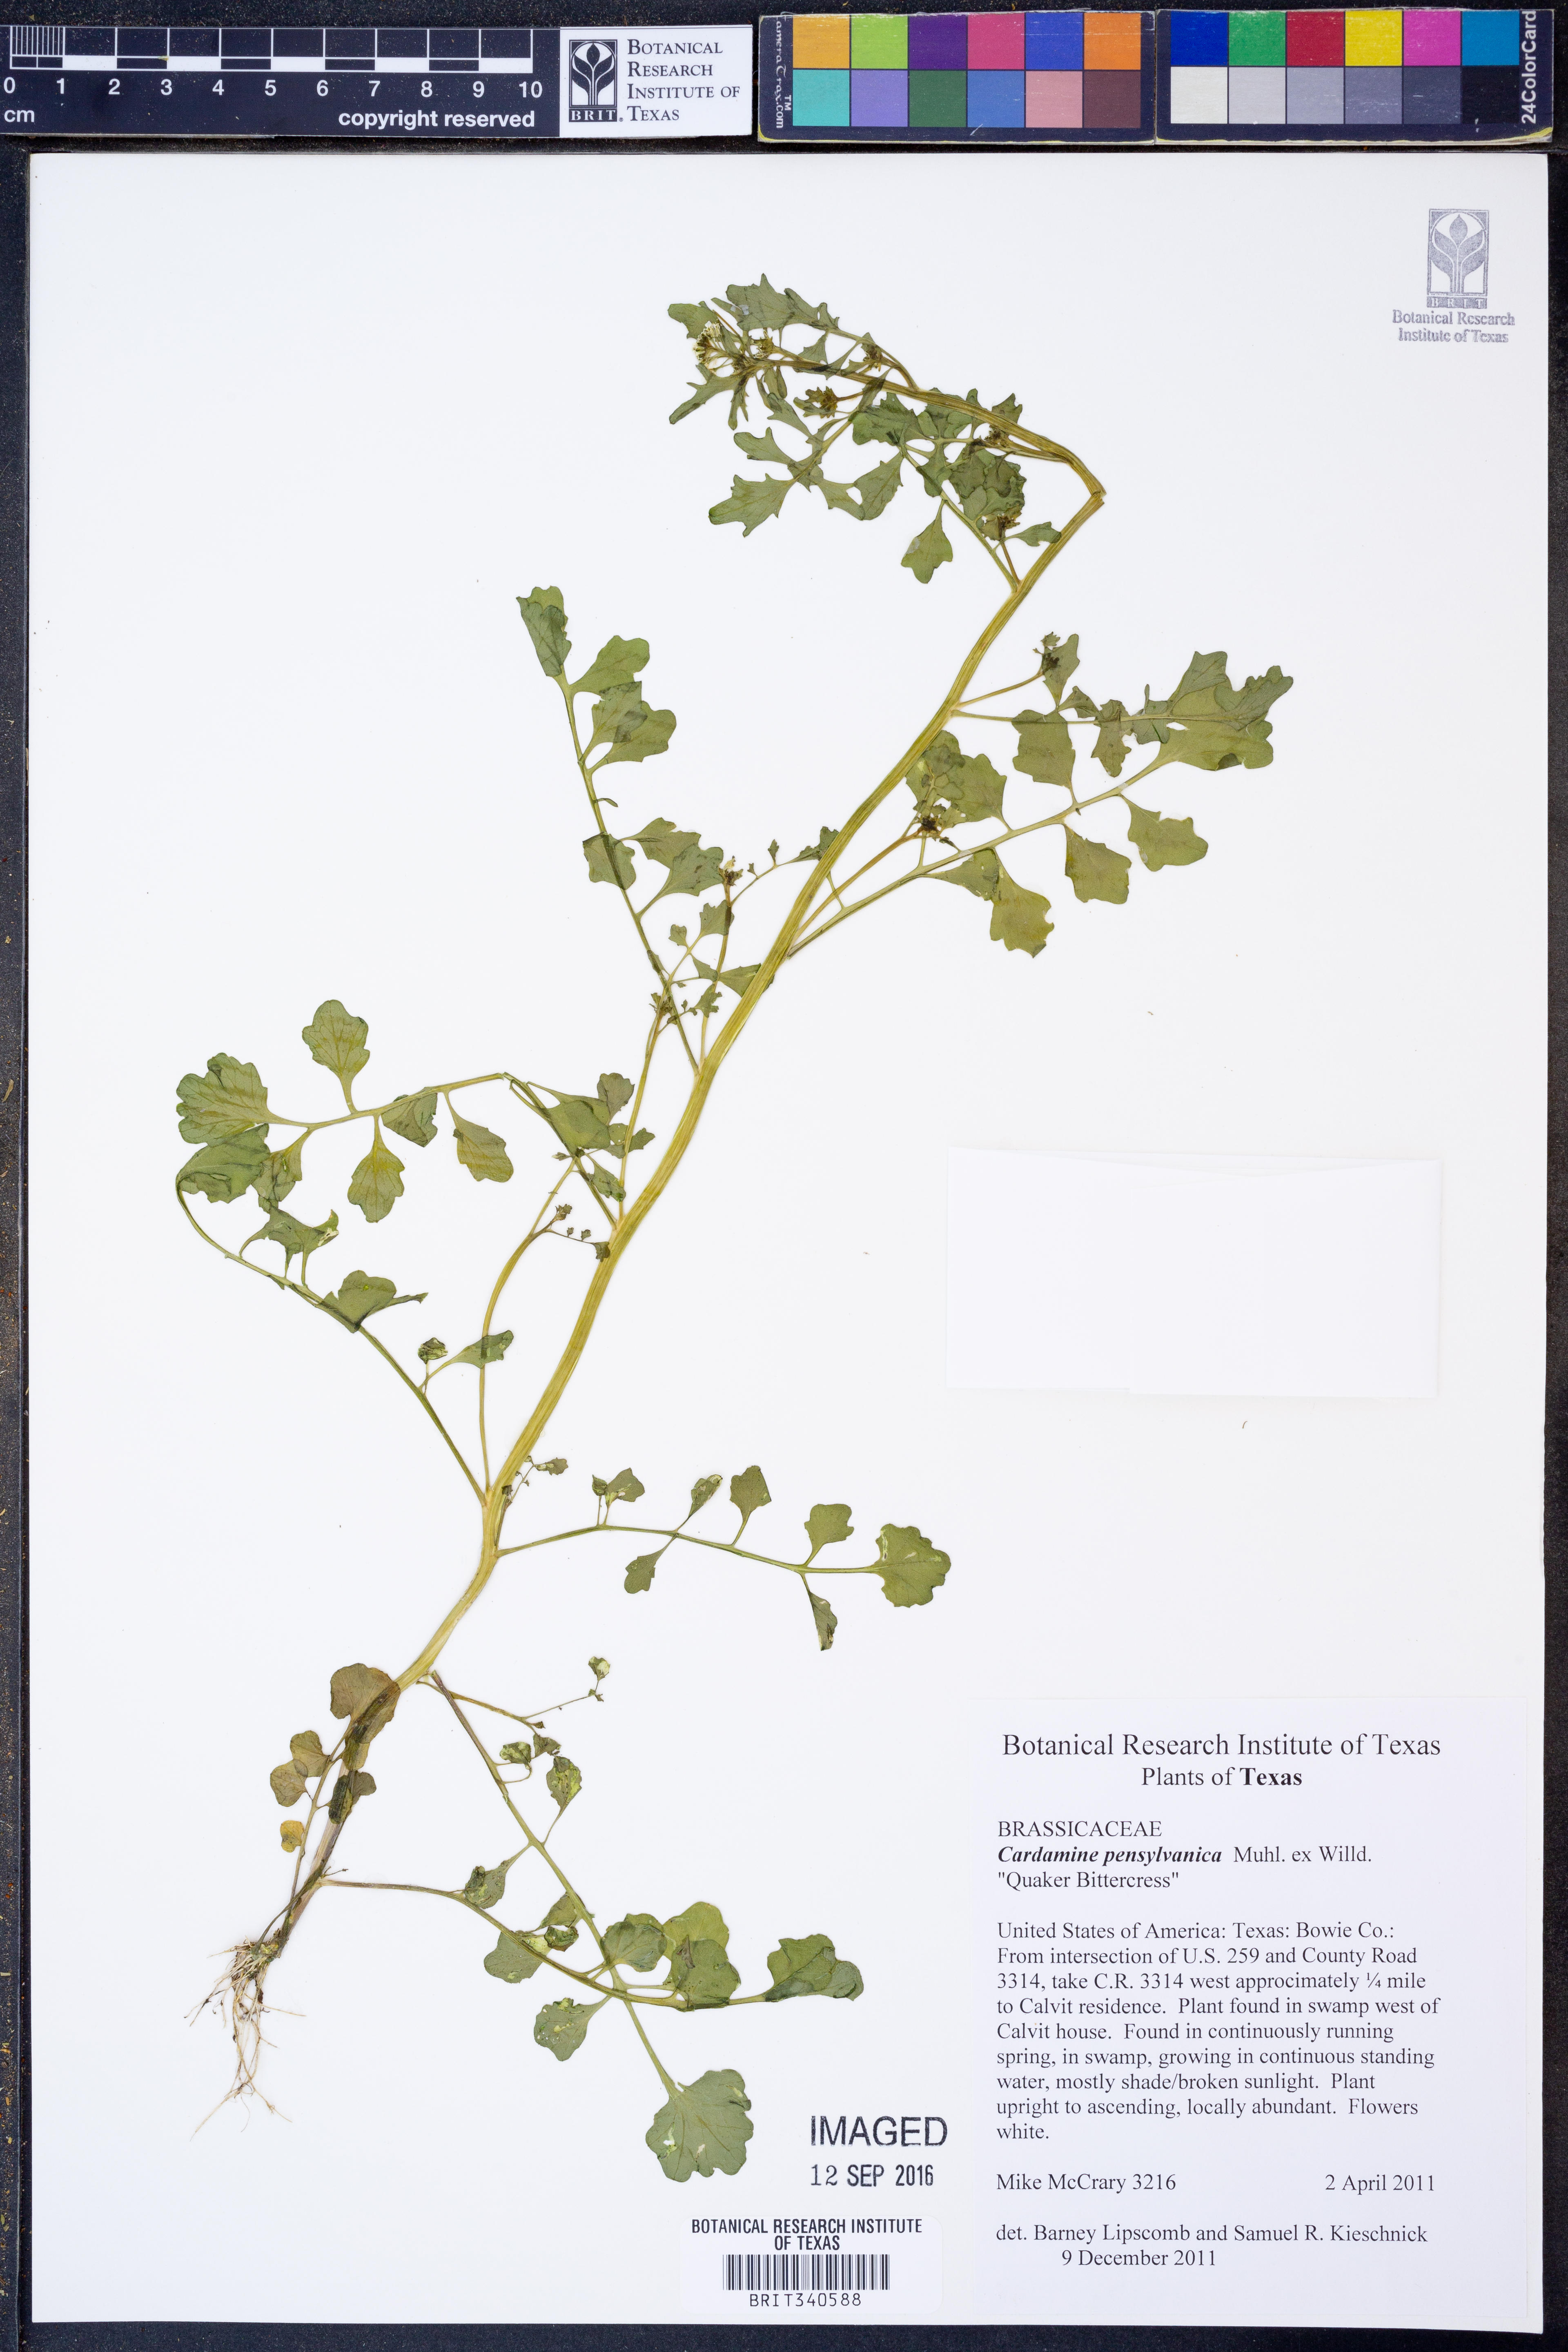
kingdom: Plantae
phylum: Tracheophyta
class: Magnoliopsida
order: Brassicales
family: Brassicaceae
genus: Cardamine
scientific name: Cardamine pensylvanica
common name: Pennsylvania bittercress
